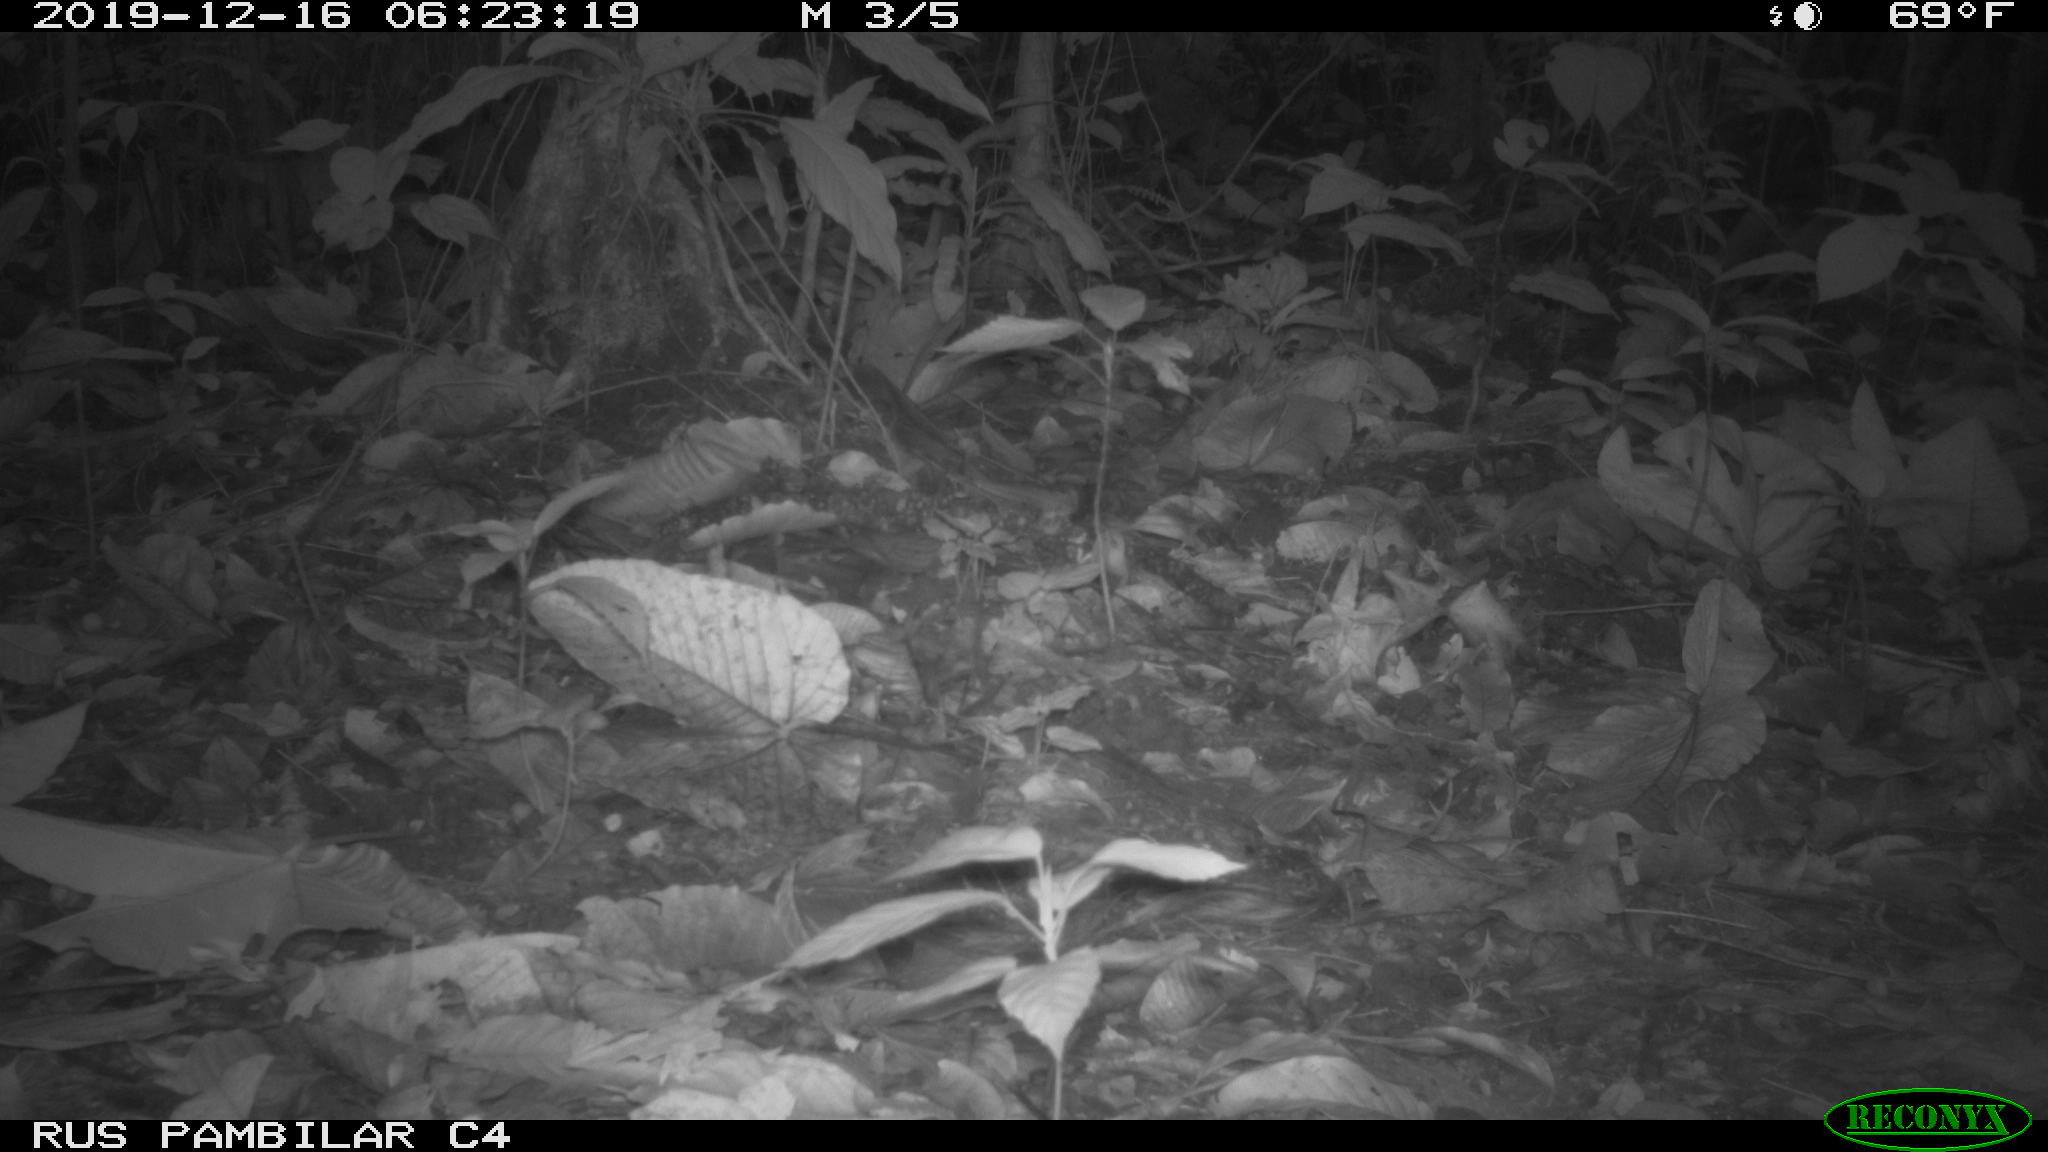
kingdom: Animalia
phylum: Chordata
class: Aves
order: Columbiformes
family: Columbidae
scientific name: Columbidae
